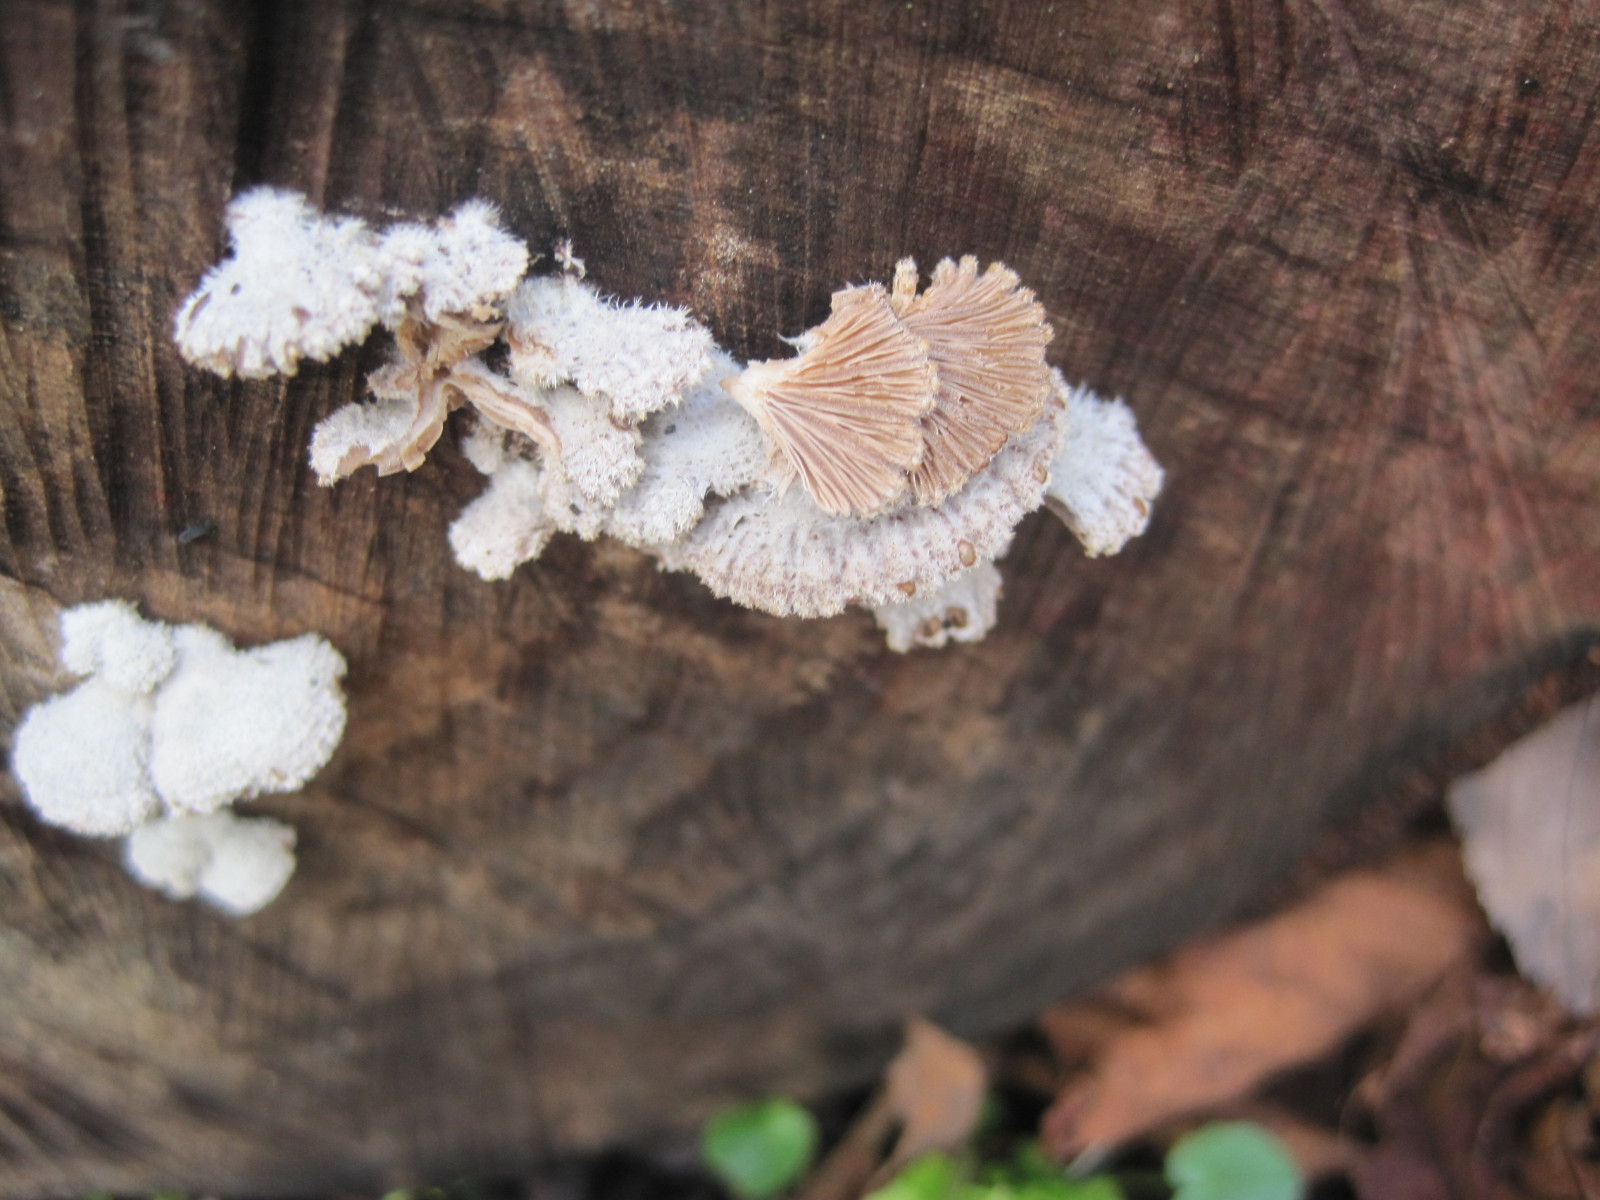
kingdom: Fungi
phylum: Basidiomycota
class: Agaricomycetes
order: Agaricales
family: Schizophyllaceae
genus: Schizophyllum
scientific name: Schizophyllum commune
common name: kløvblad
